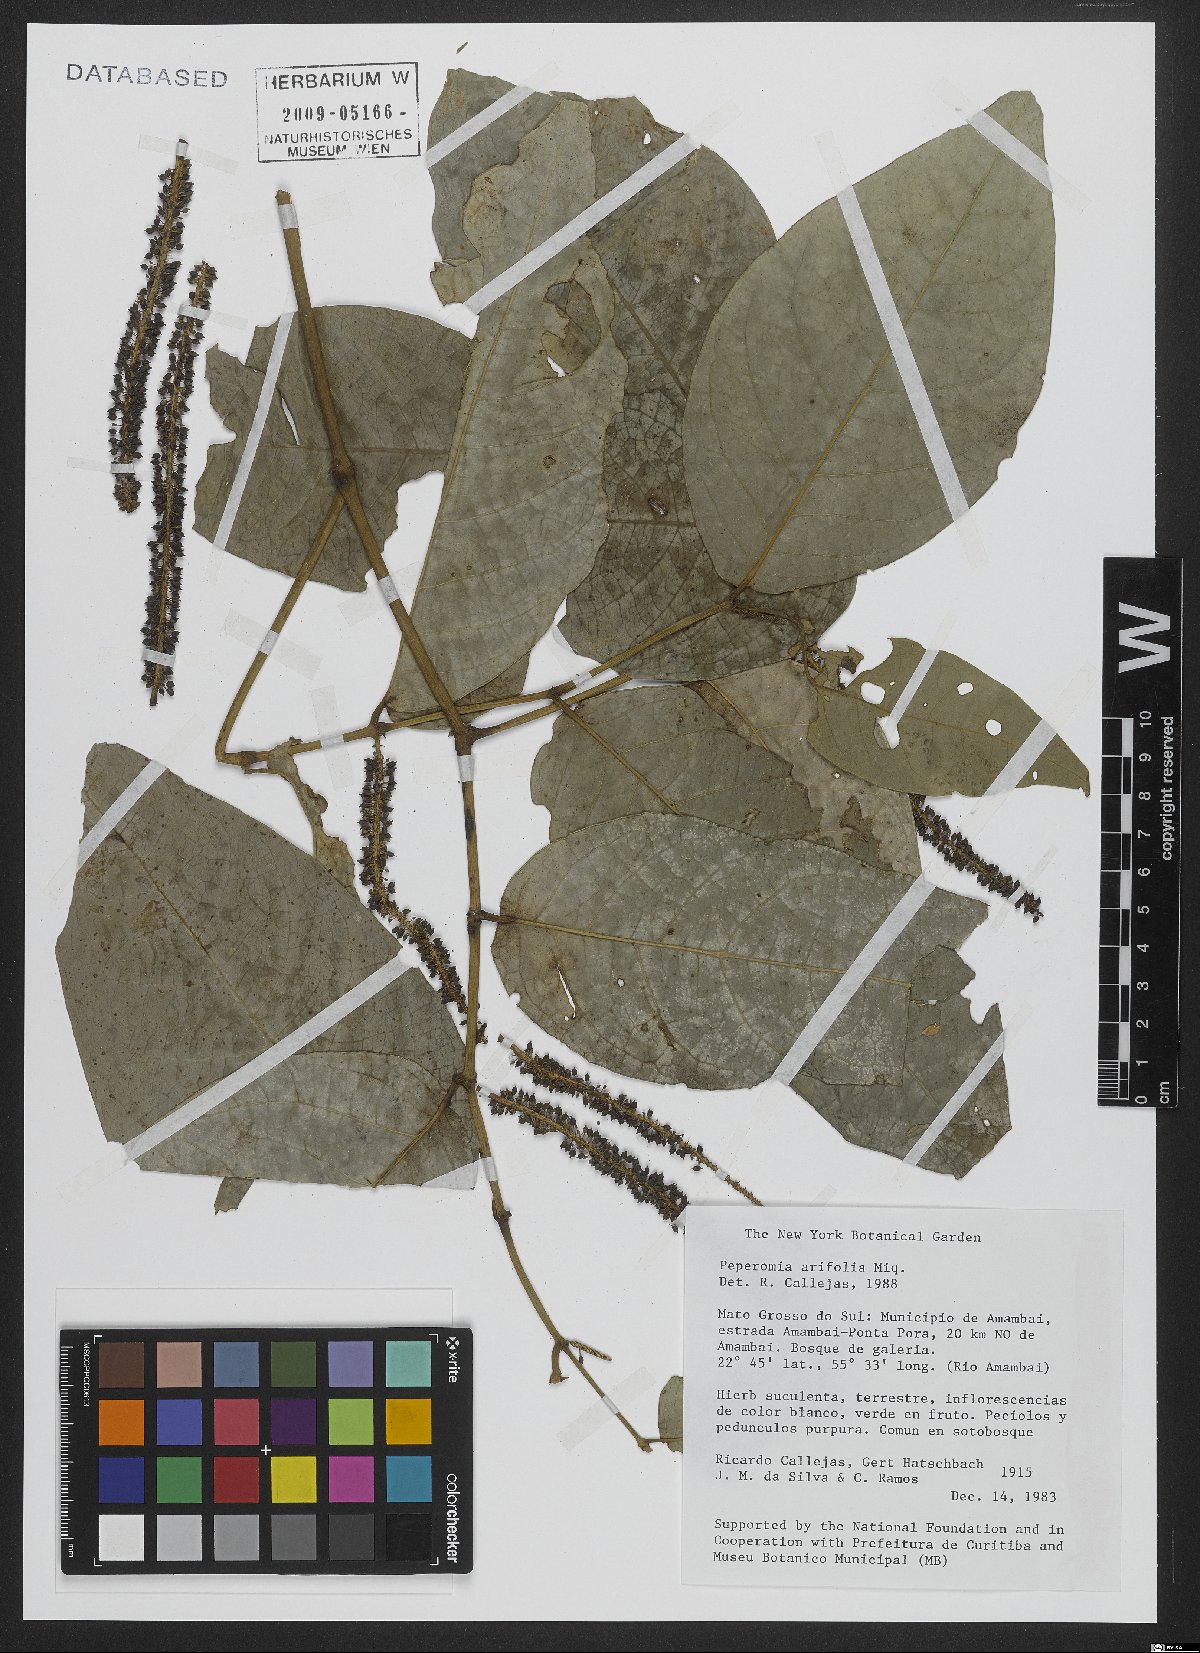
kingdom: Plantae
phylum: Tracheophyta
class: Magnoliopsida
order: Piperales
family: Piperaceae
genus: Peperomia
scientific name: Peperomia arifolia
